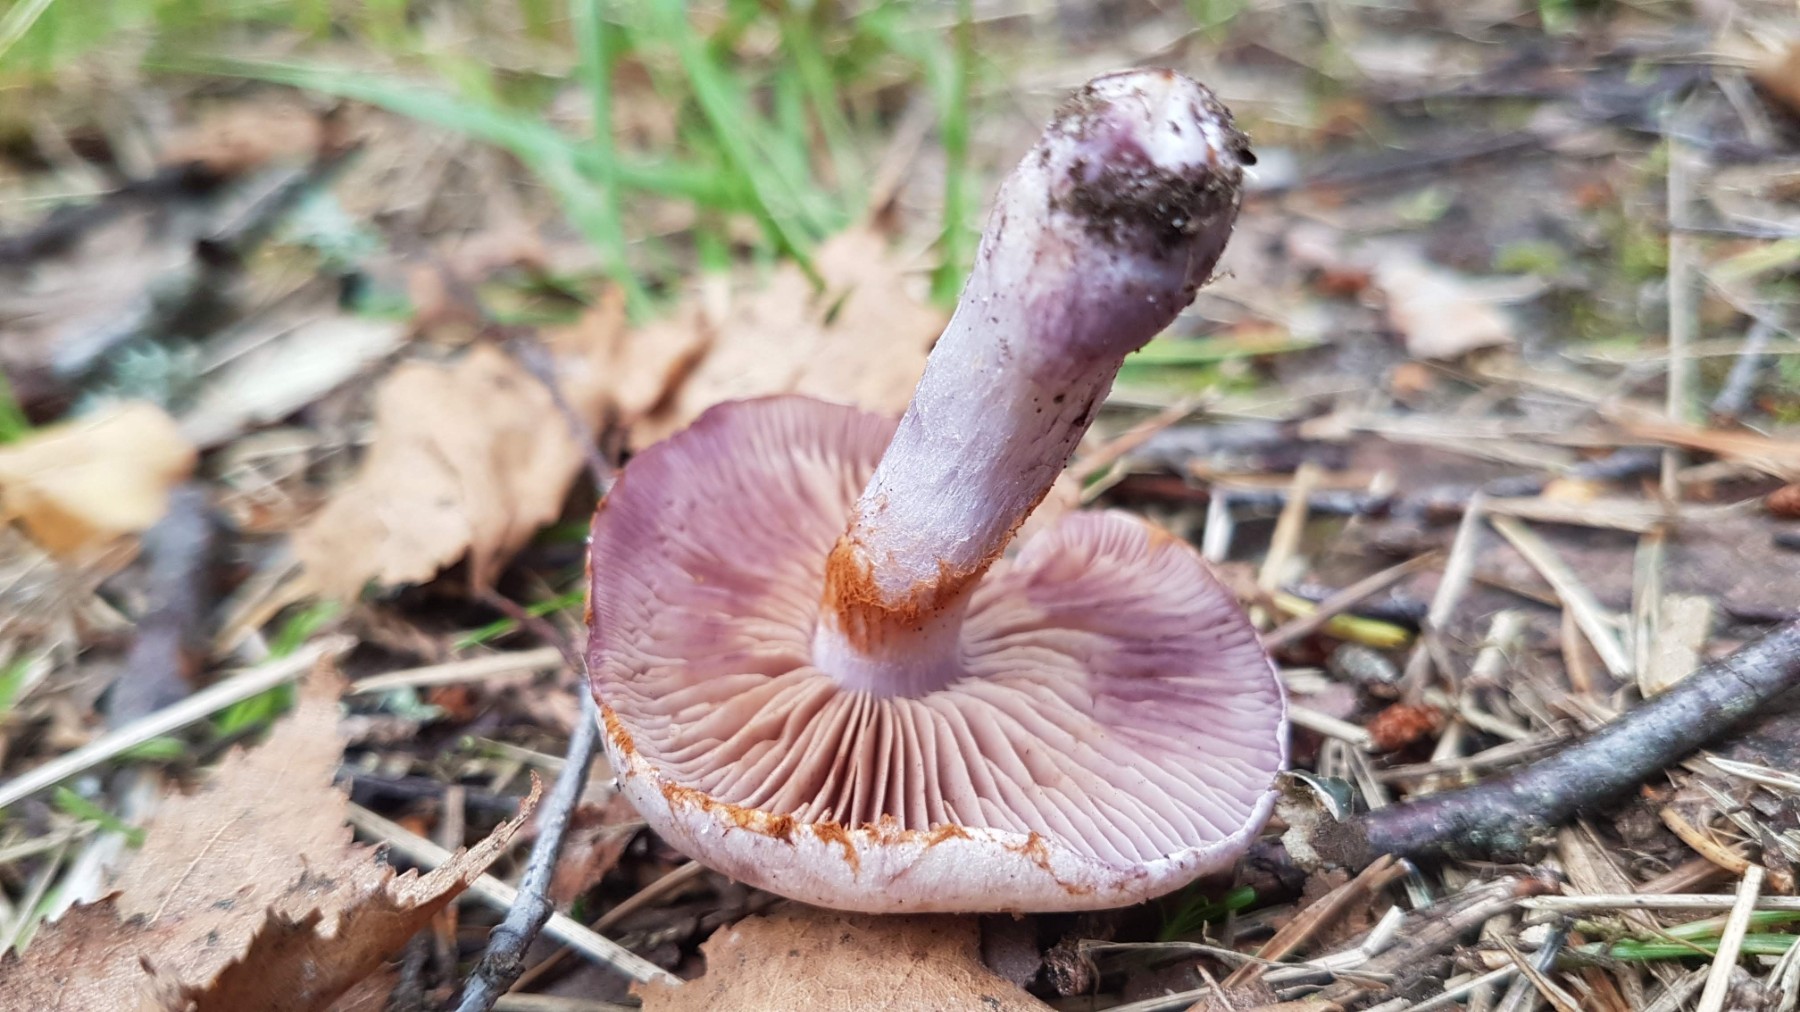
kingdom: Fungi
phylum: Basidiomycota
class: Agaricomycetes
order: Agaricales
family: Cortinariaceae
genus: Thaxterogaster
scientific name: Thaxterogaster porphyropus
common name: purpurstokket slørhat
